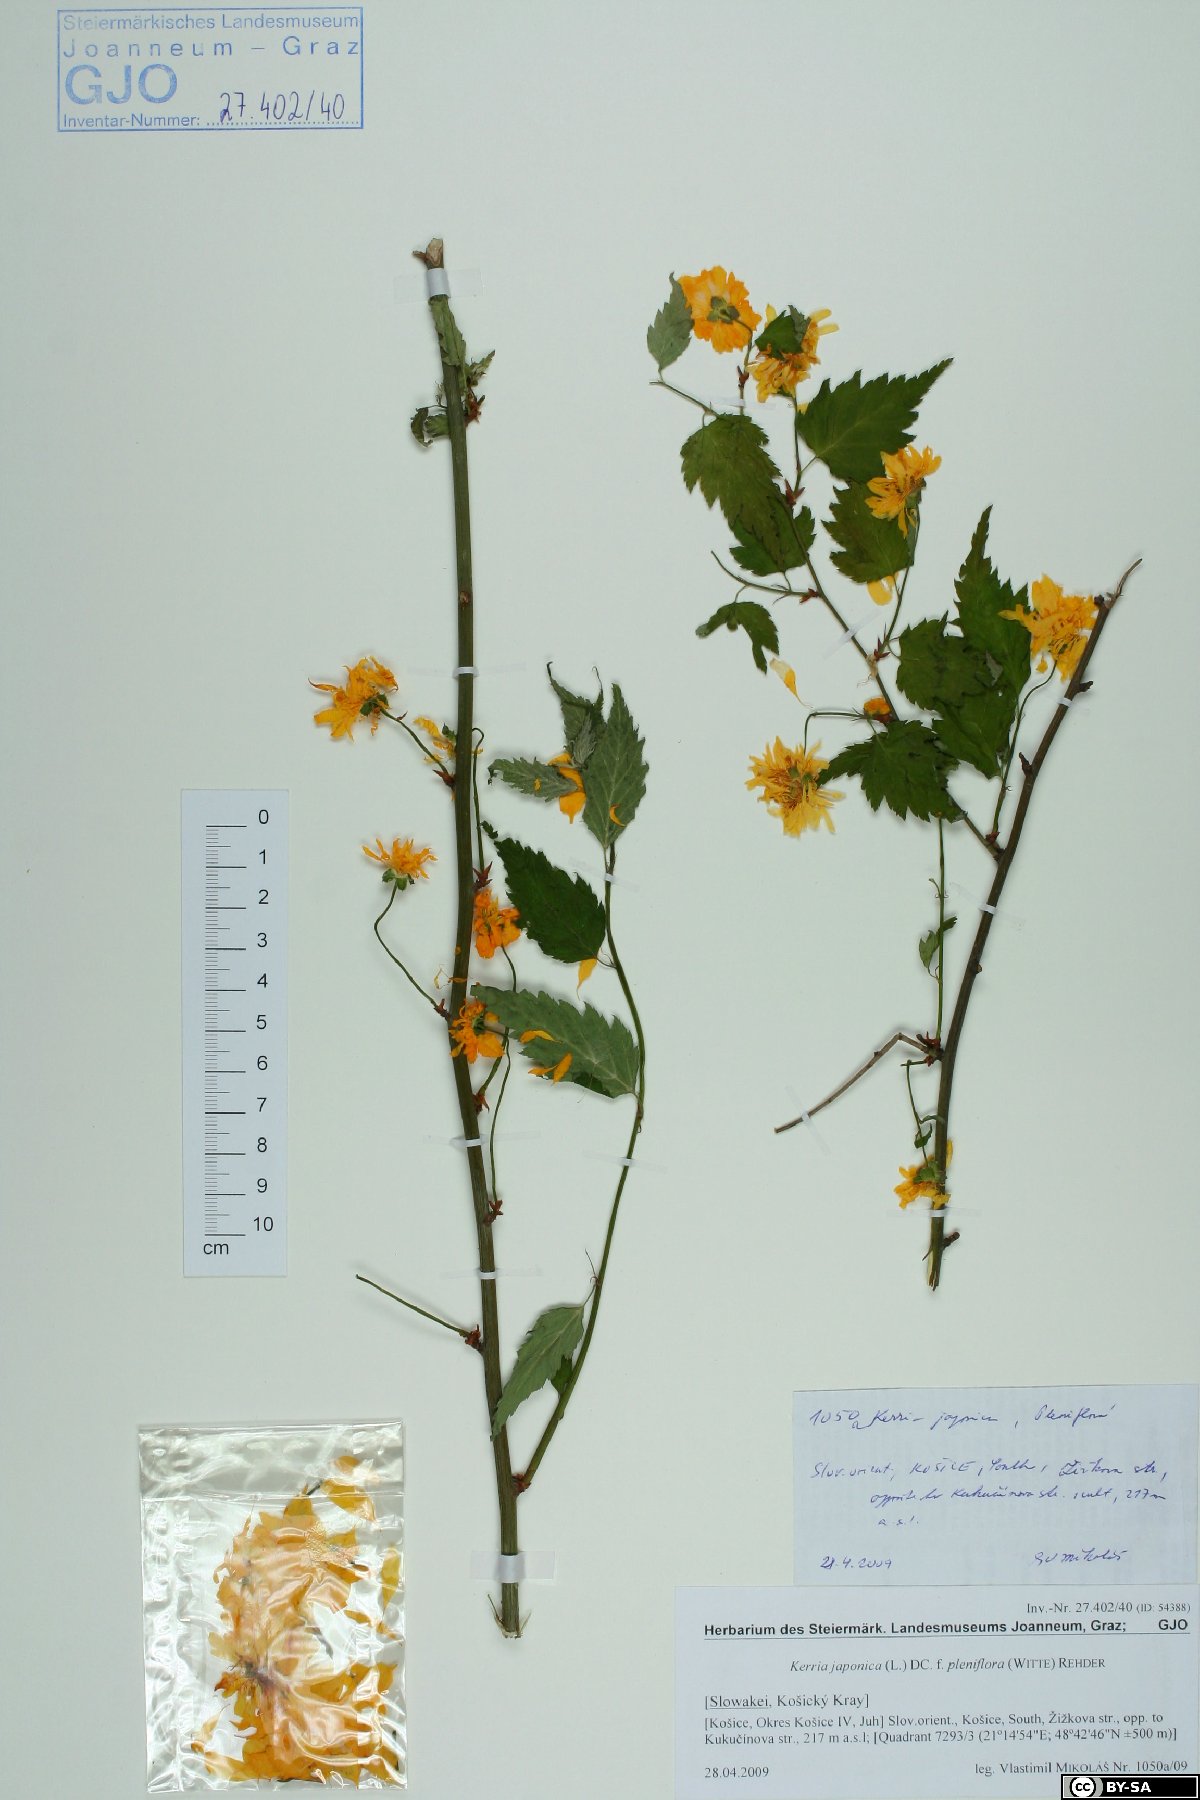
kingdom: Plantae
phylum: Tracheophyta
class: Magnoliopsida
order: Rosales
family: Rosaceae
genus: Kerria
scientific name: Kerria japonica
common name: Japanese kerria
